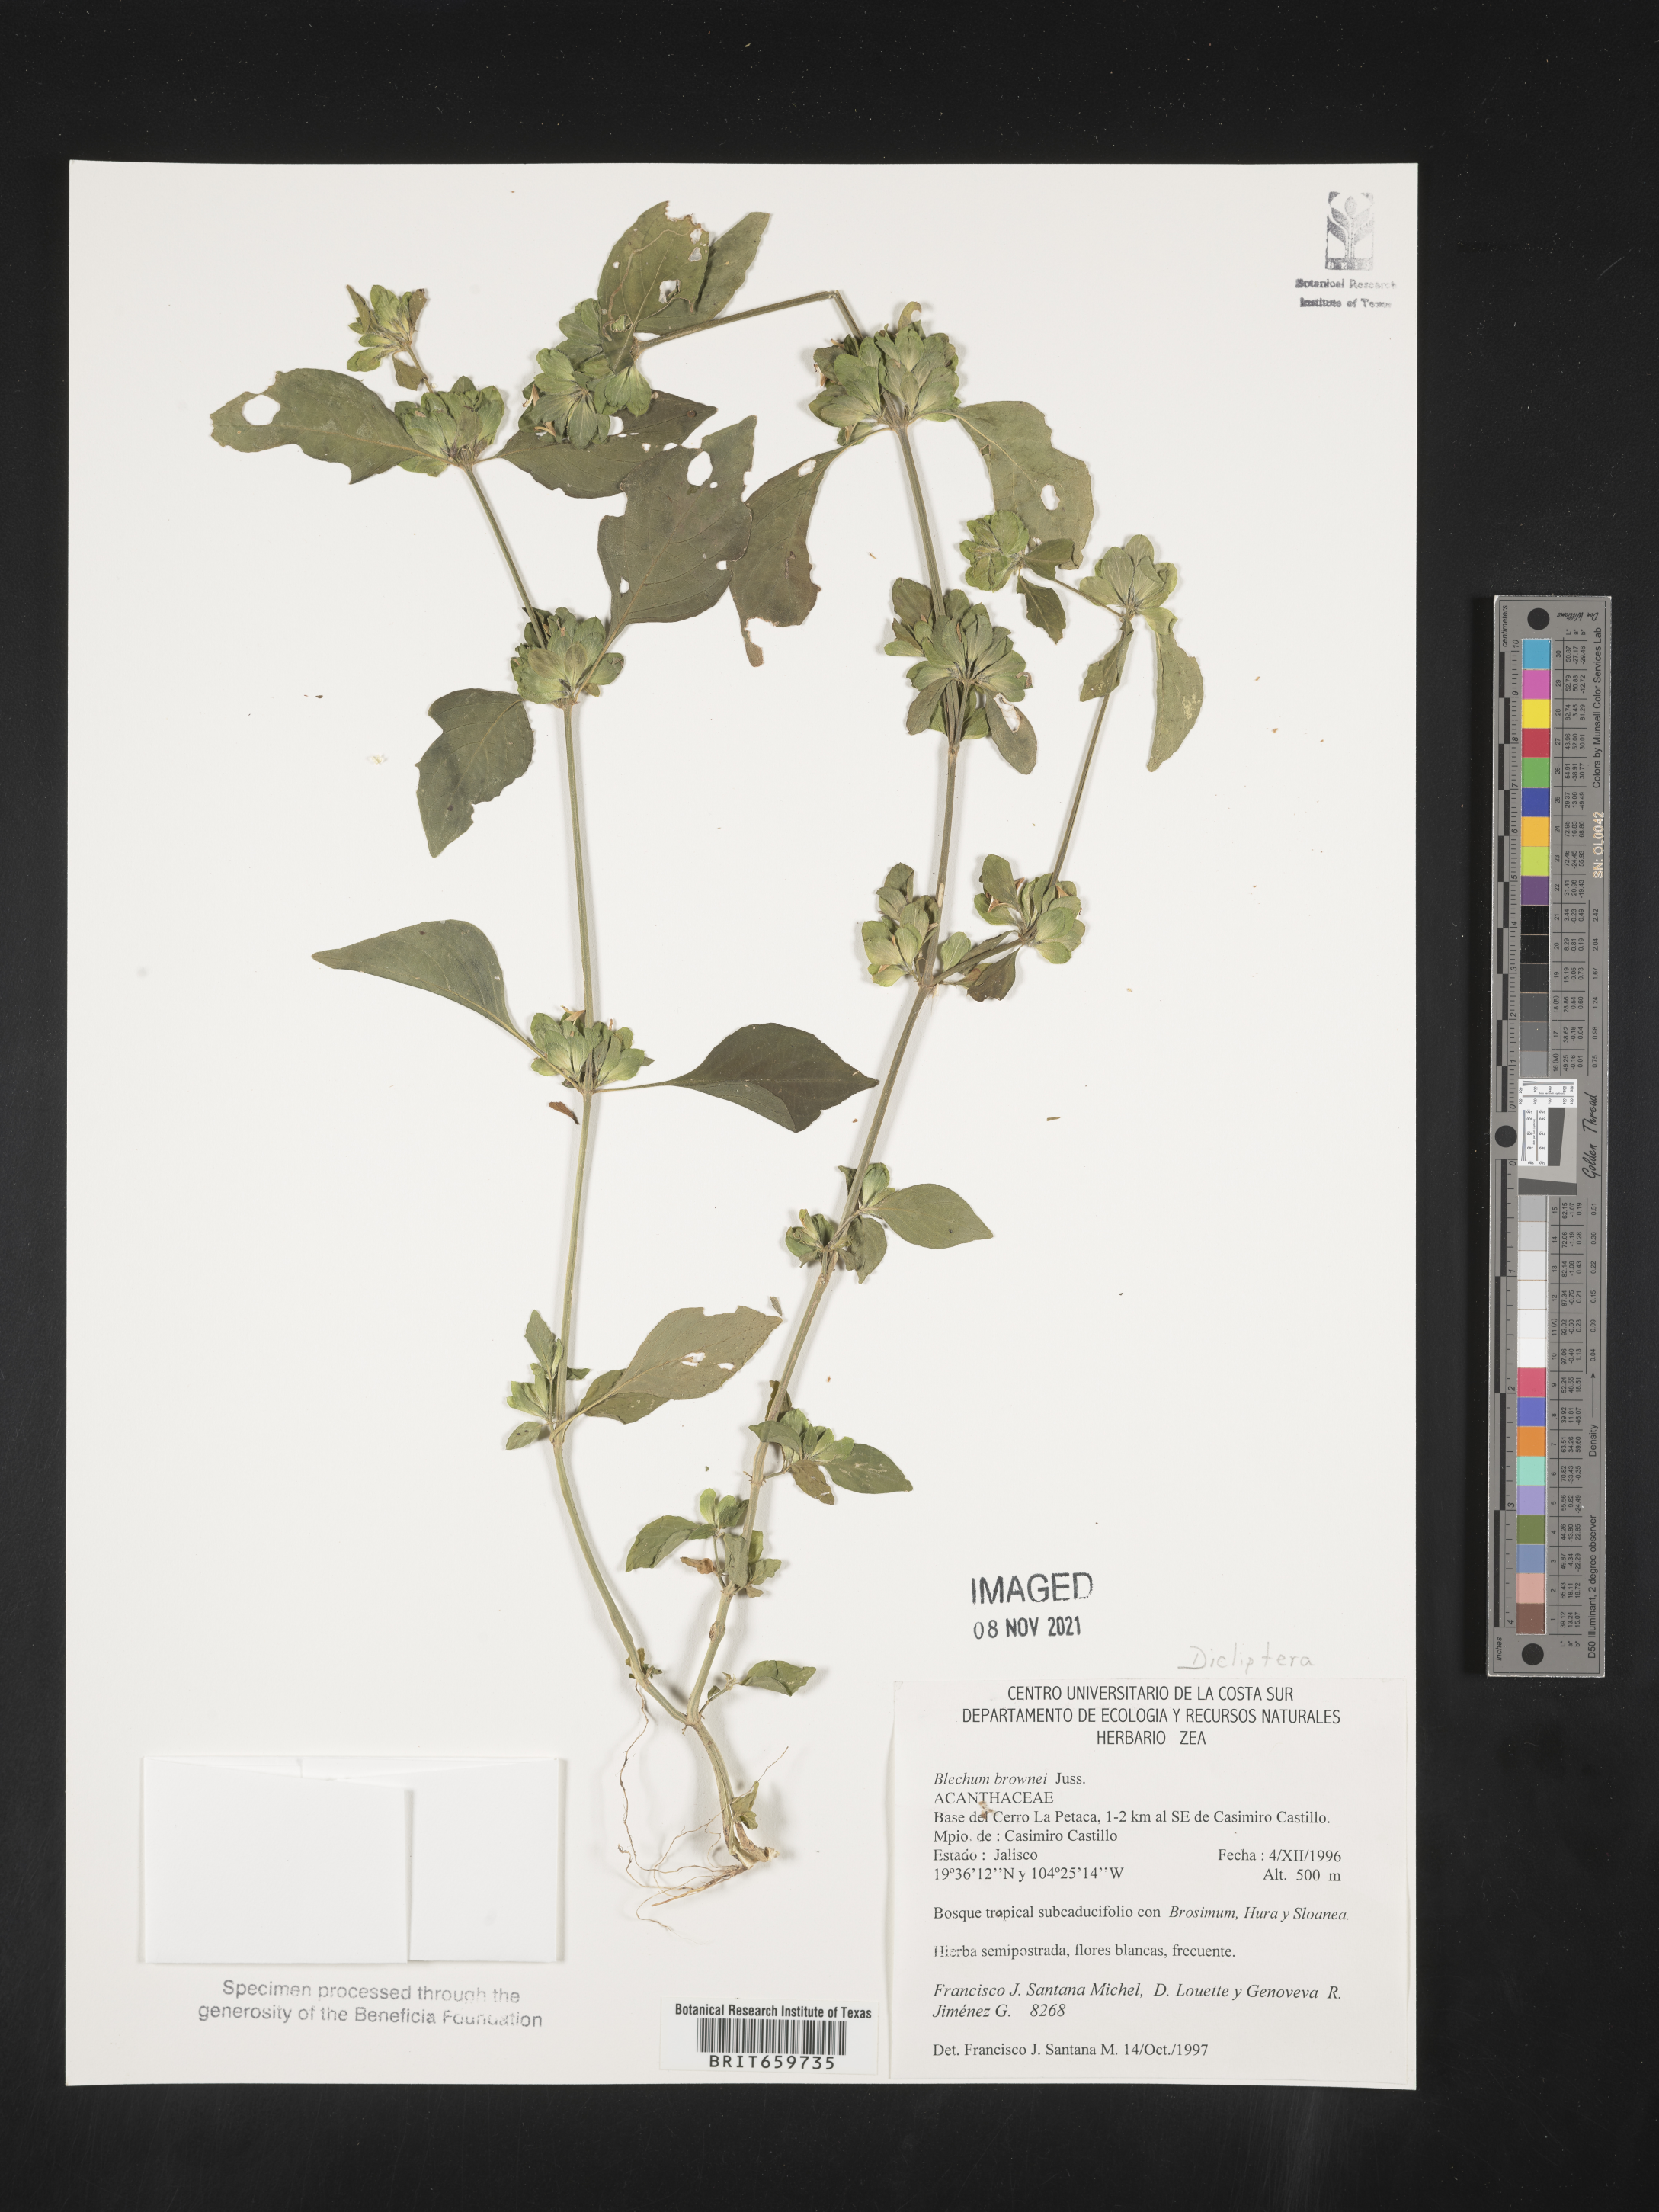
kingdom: Plantae
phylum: Tracheophyta
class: Magnoliopsida
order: Lamiales
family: Acanthaceae
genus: Dicliptera
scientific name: Dicliptera
